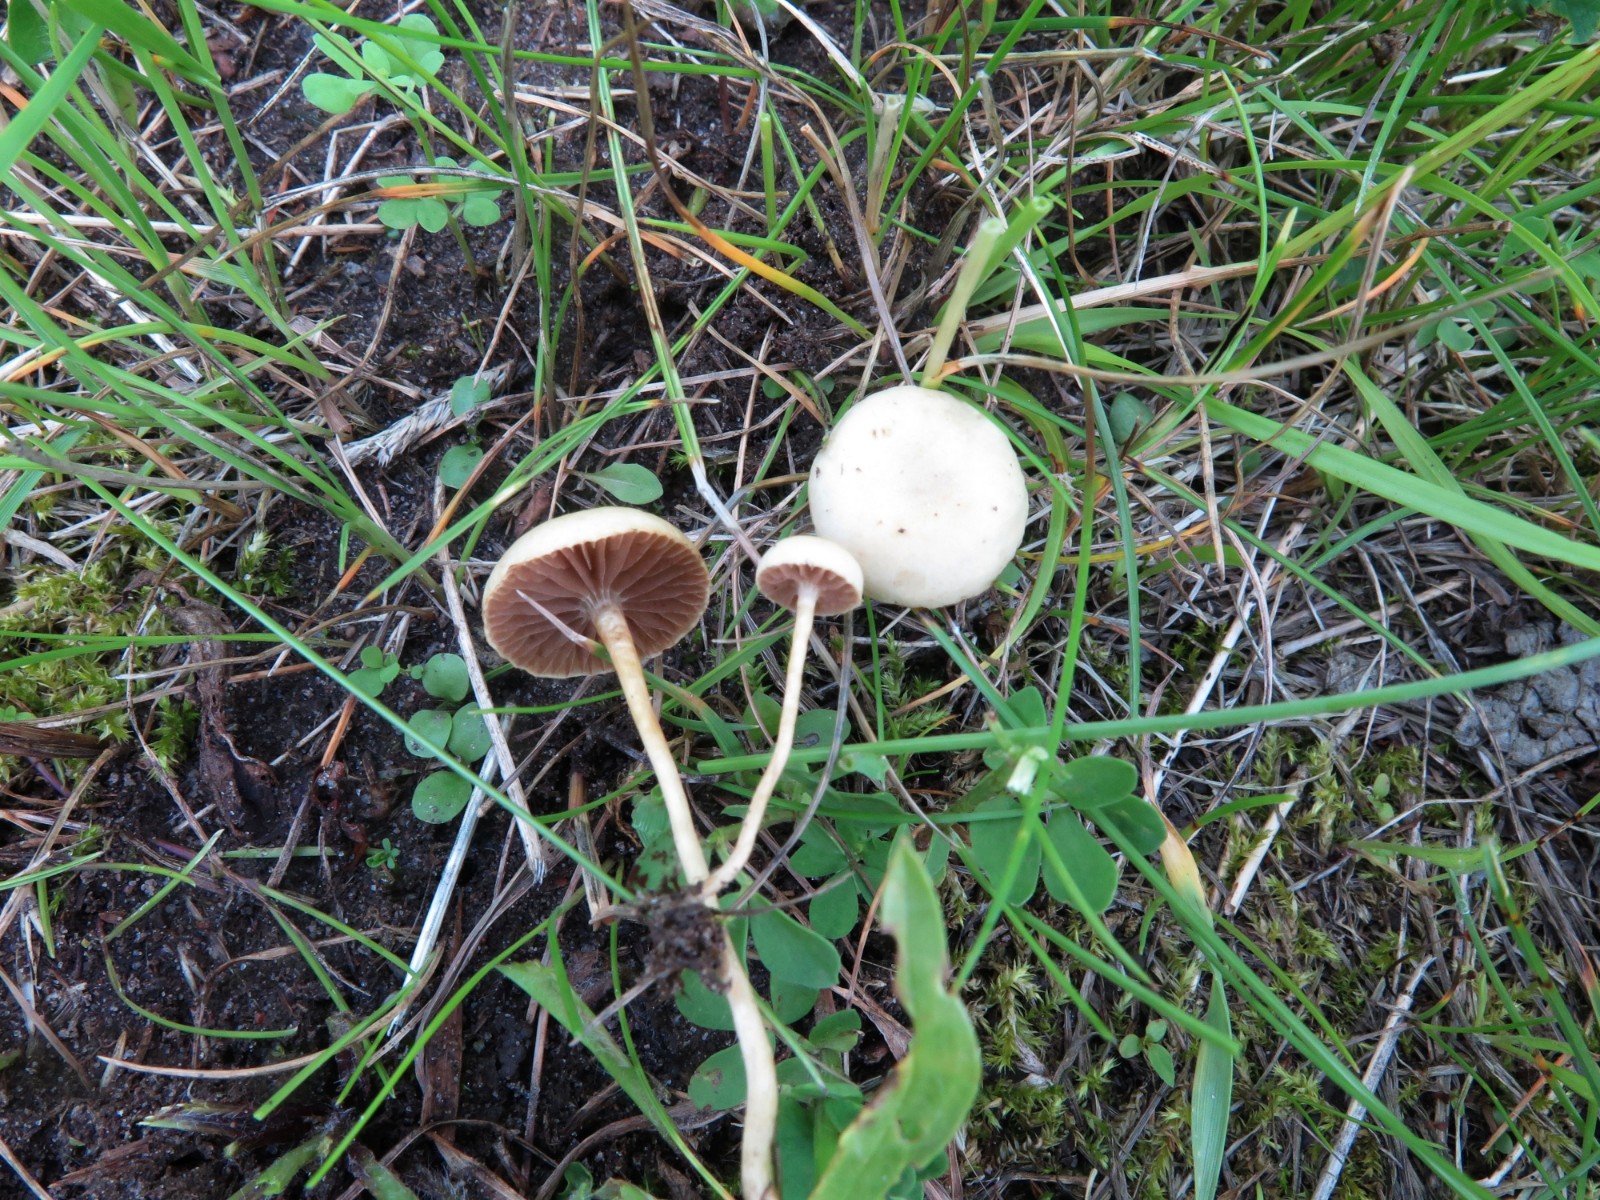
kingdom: Fungi
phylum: Basidiomycota
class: Agaricomycetes
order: Agaricales
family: Strophariaceae
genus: Agrocybe
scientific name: Agrocybe pediades
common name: almindelig agerhat
